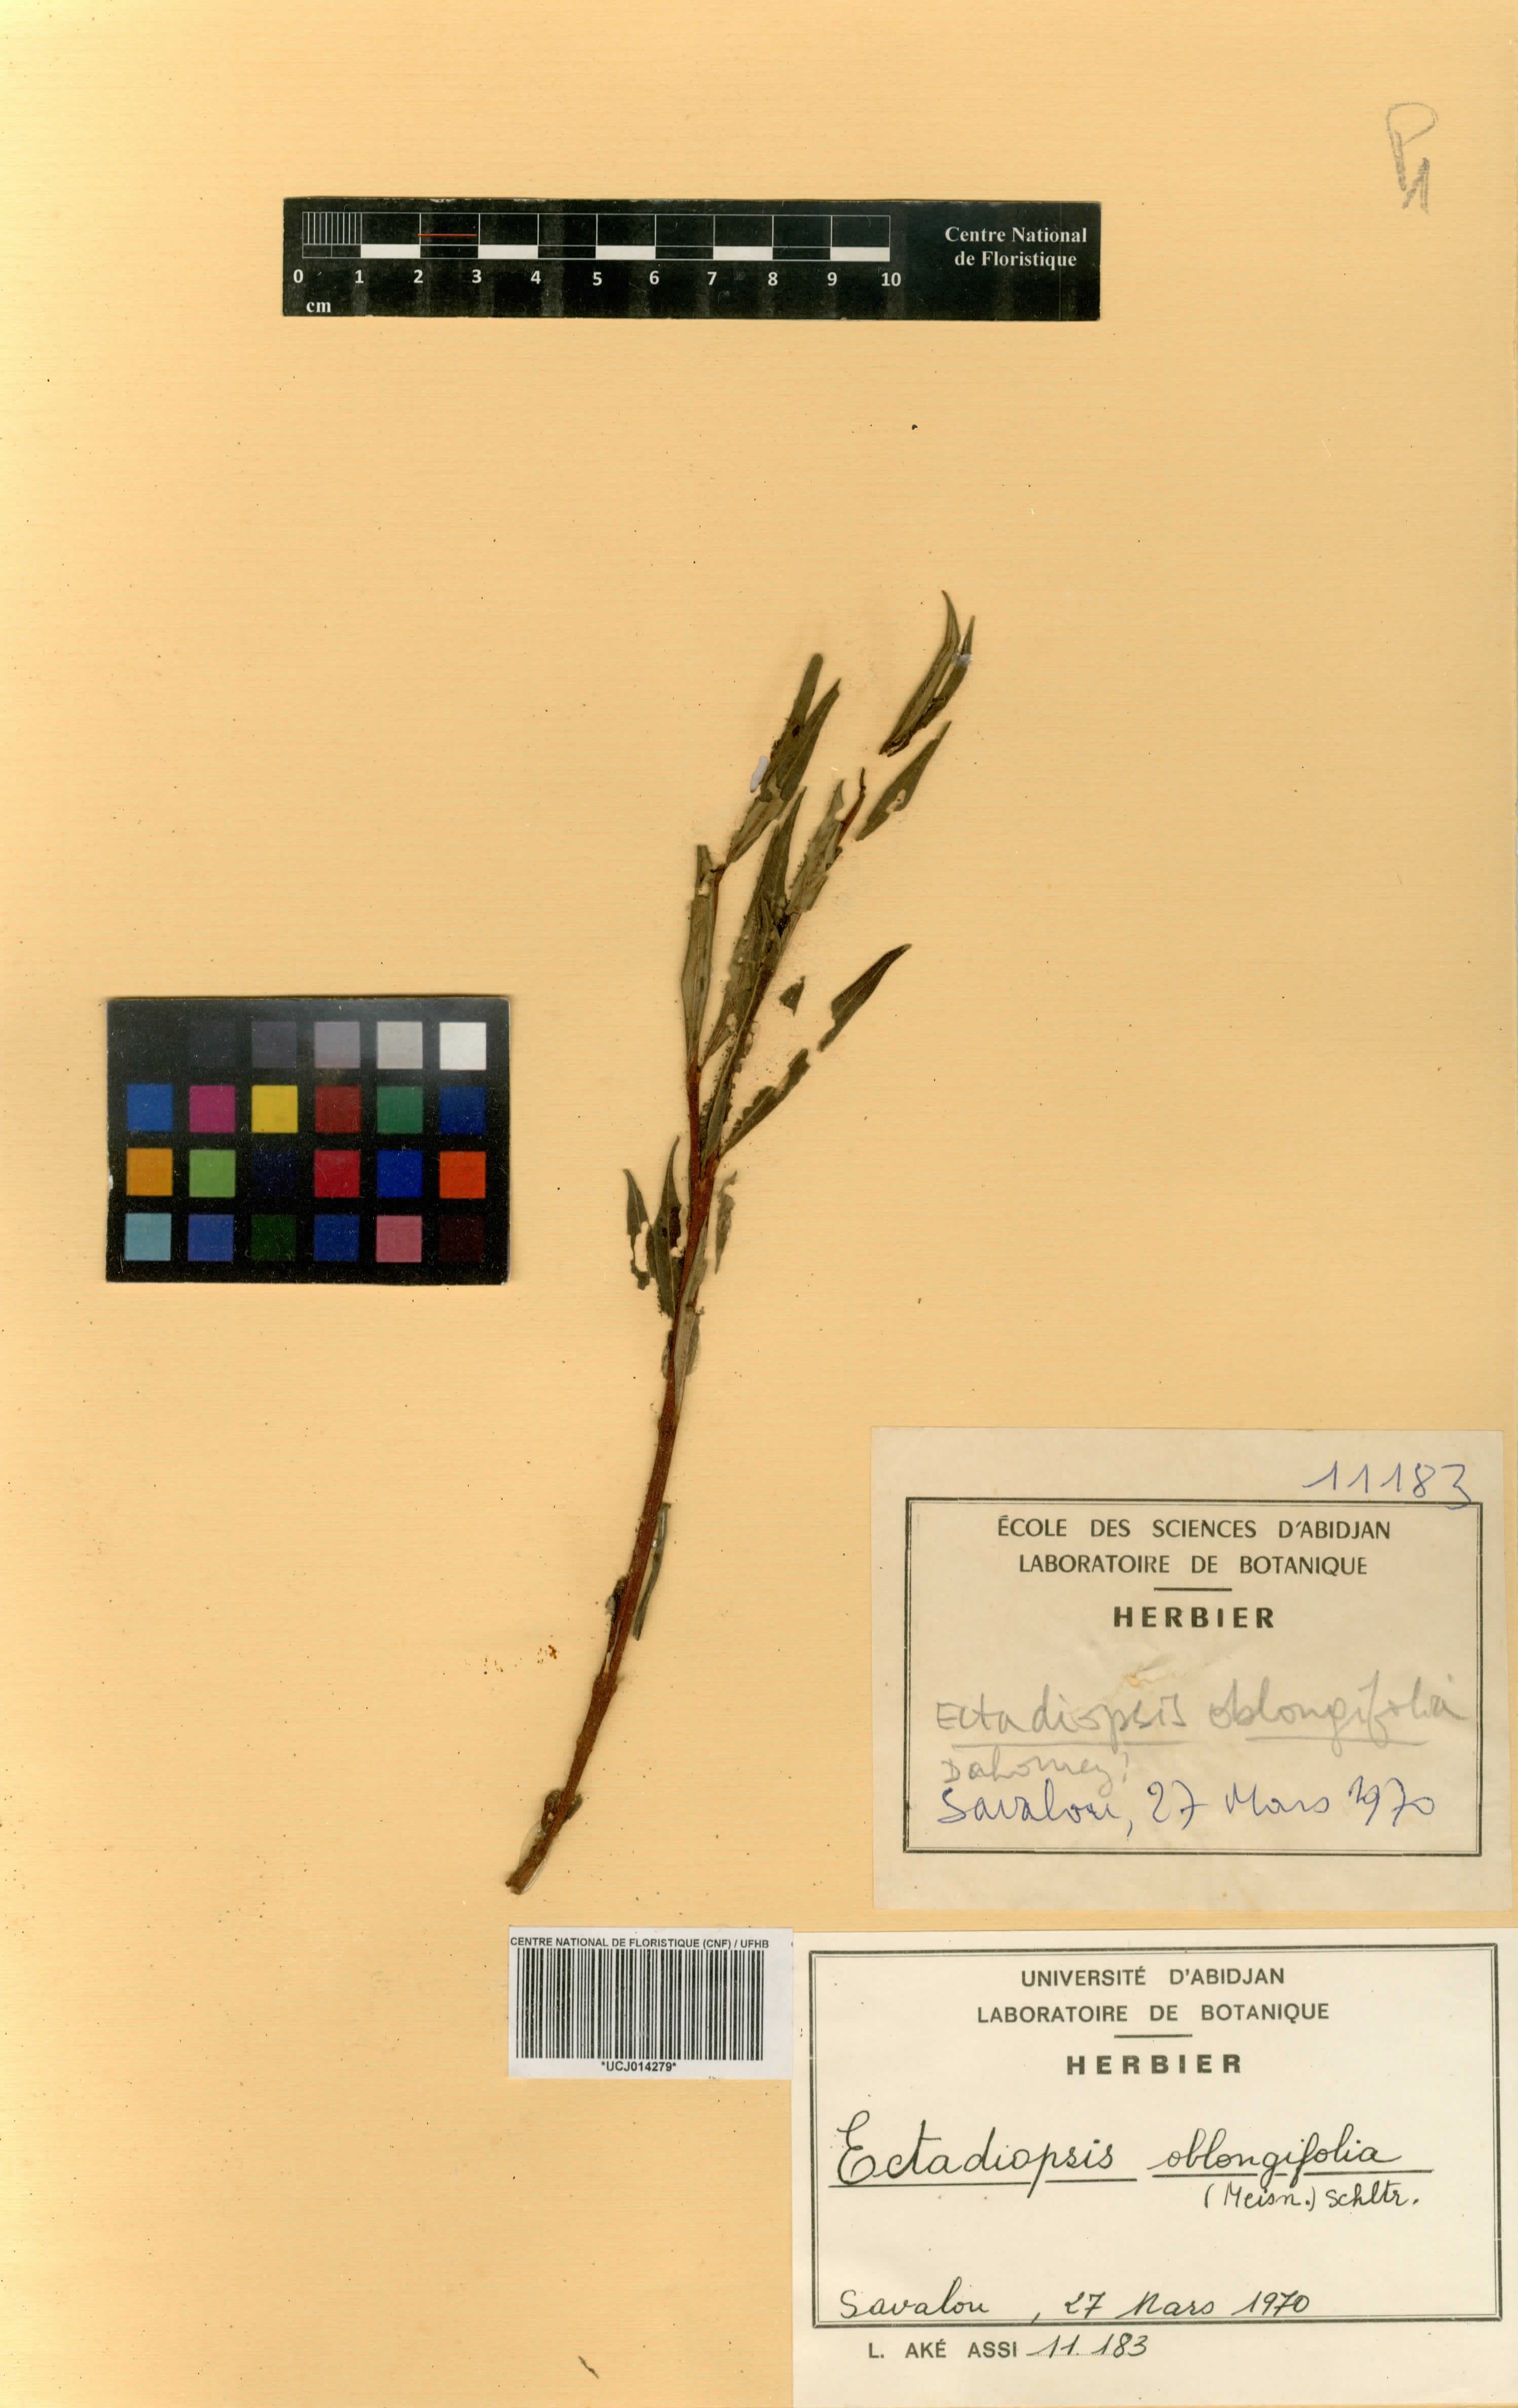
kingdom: Plantae
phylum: Tracheophyta
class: Magnoliopsida
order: Gentianales
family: Apocynaceae
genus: Cryptolepis
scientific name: Cryptolepis oblongifolia
